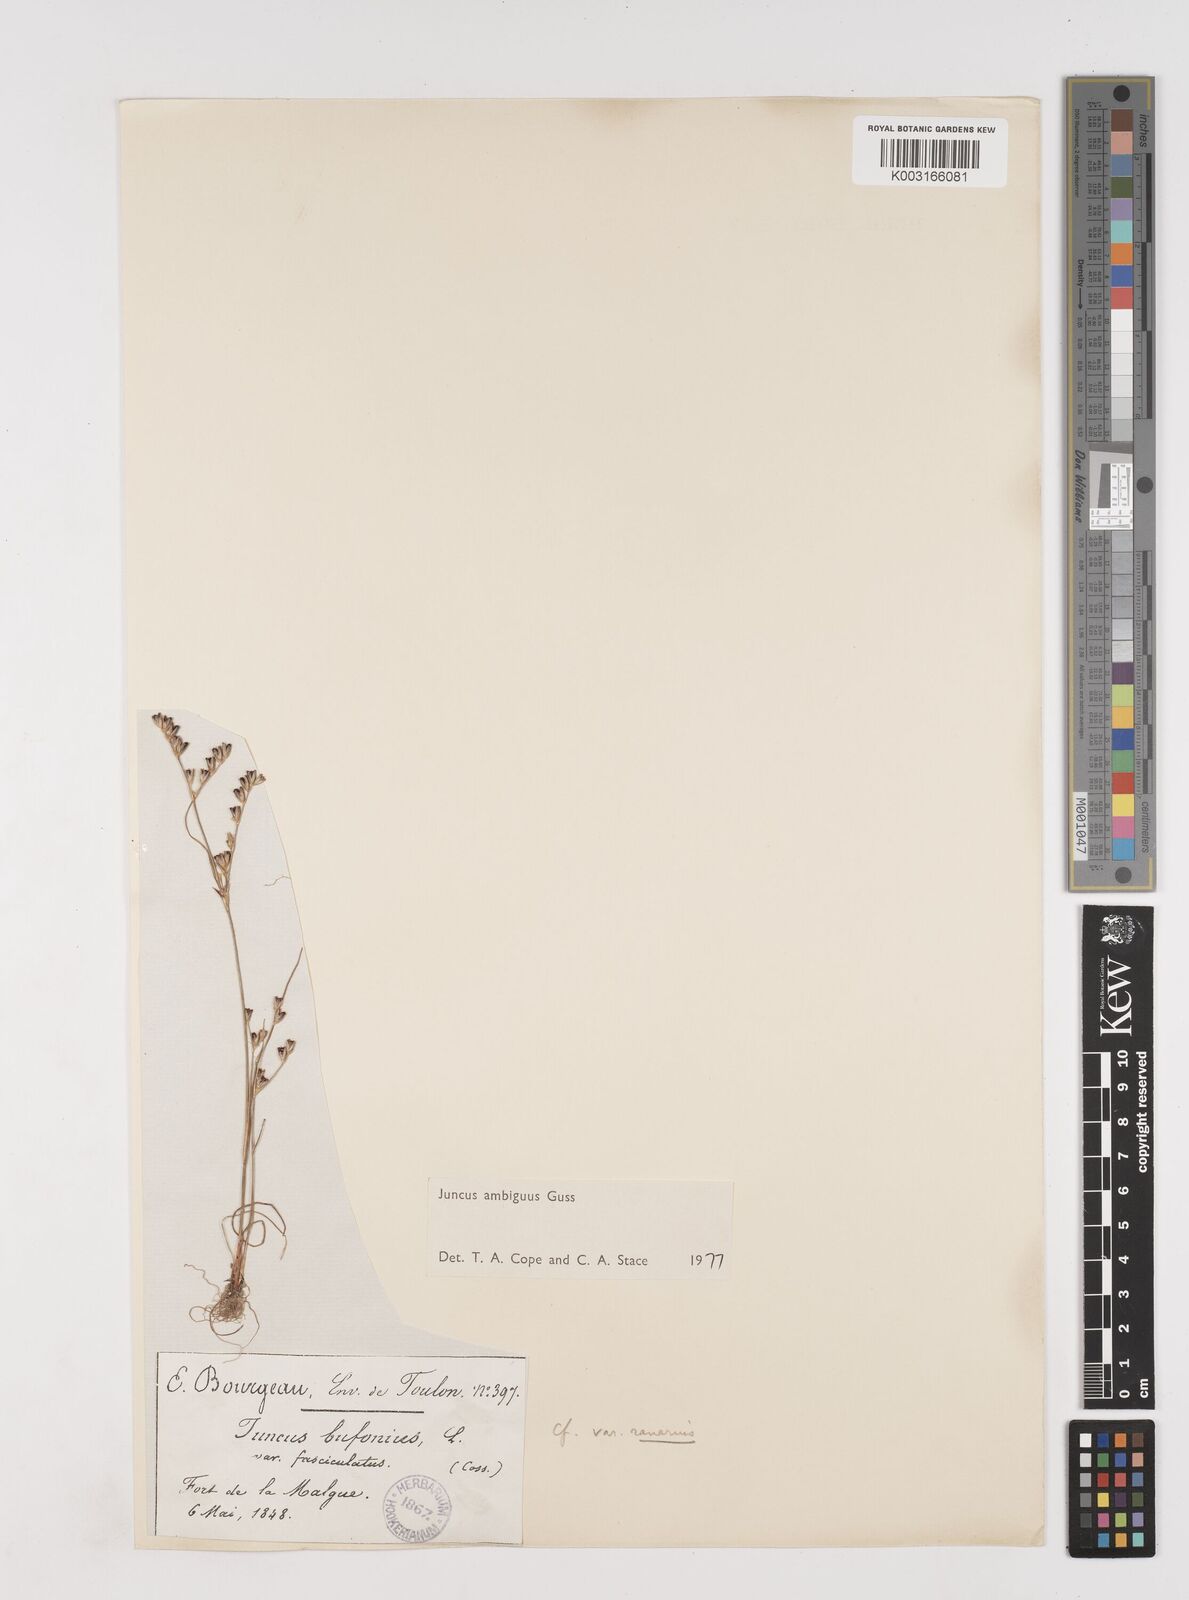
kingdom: Plantae
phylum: Tracheophyta
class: Liliopsida
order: Poales
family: Juncaceae
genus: Juncus
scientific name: Juncus hybridus
